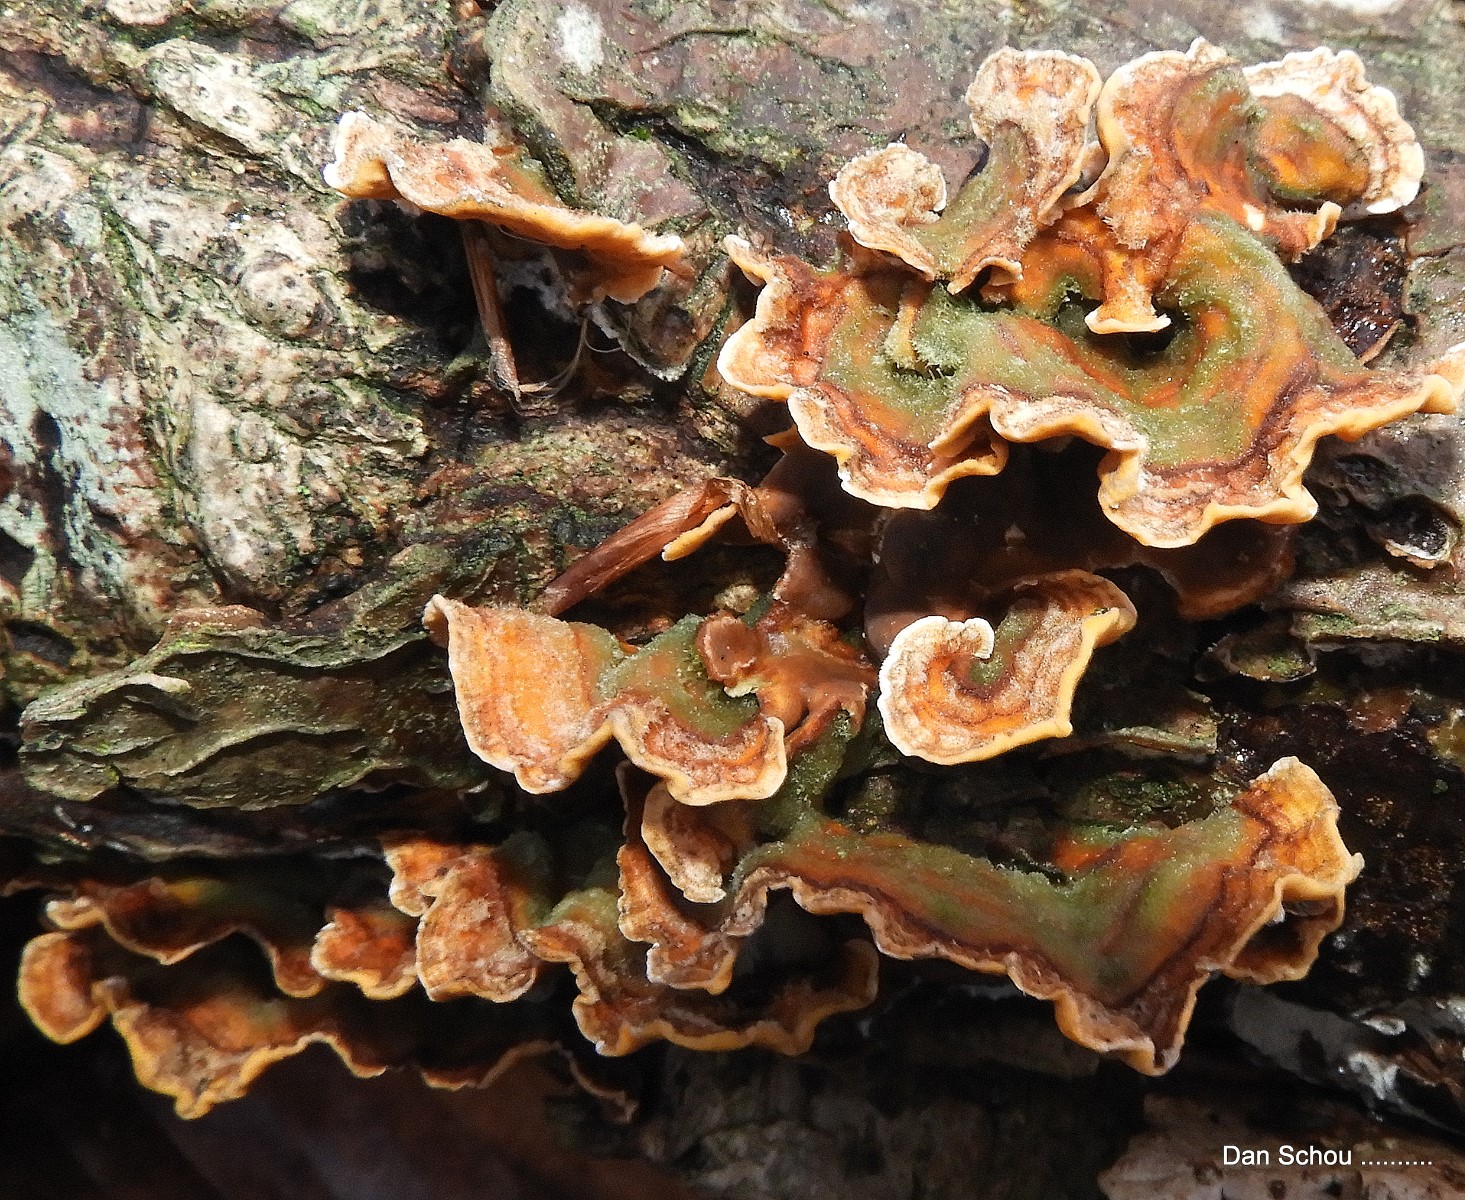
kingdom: Fungi
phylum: Basidiomycota
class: Agaricomycetes
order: Russulales
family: Stereaceae
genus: Stereum
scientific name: Stereum subtomentosum
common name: smuk lædersvamp
